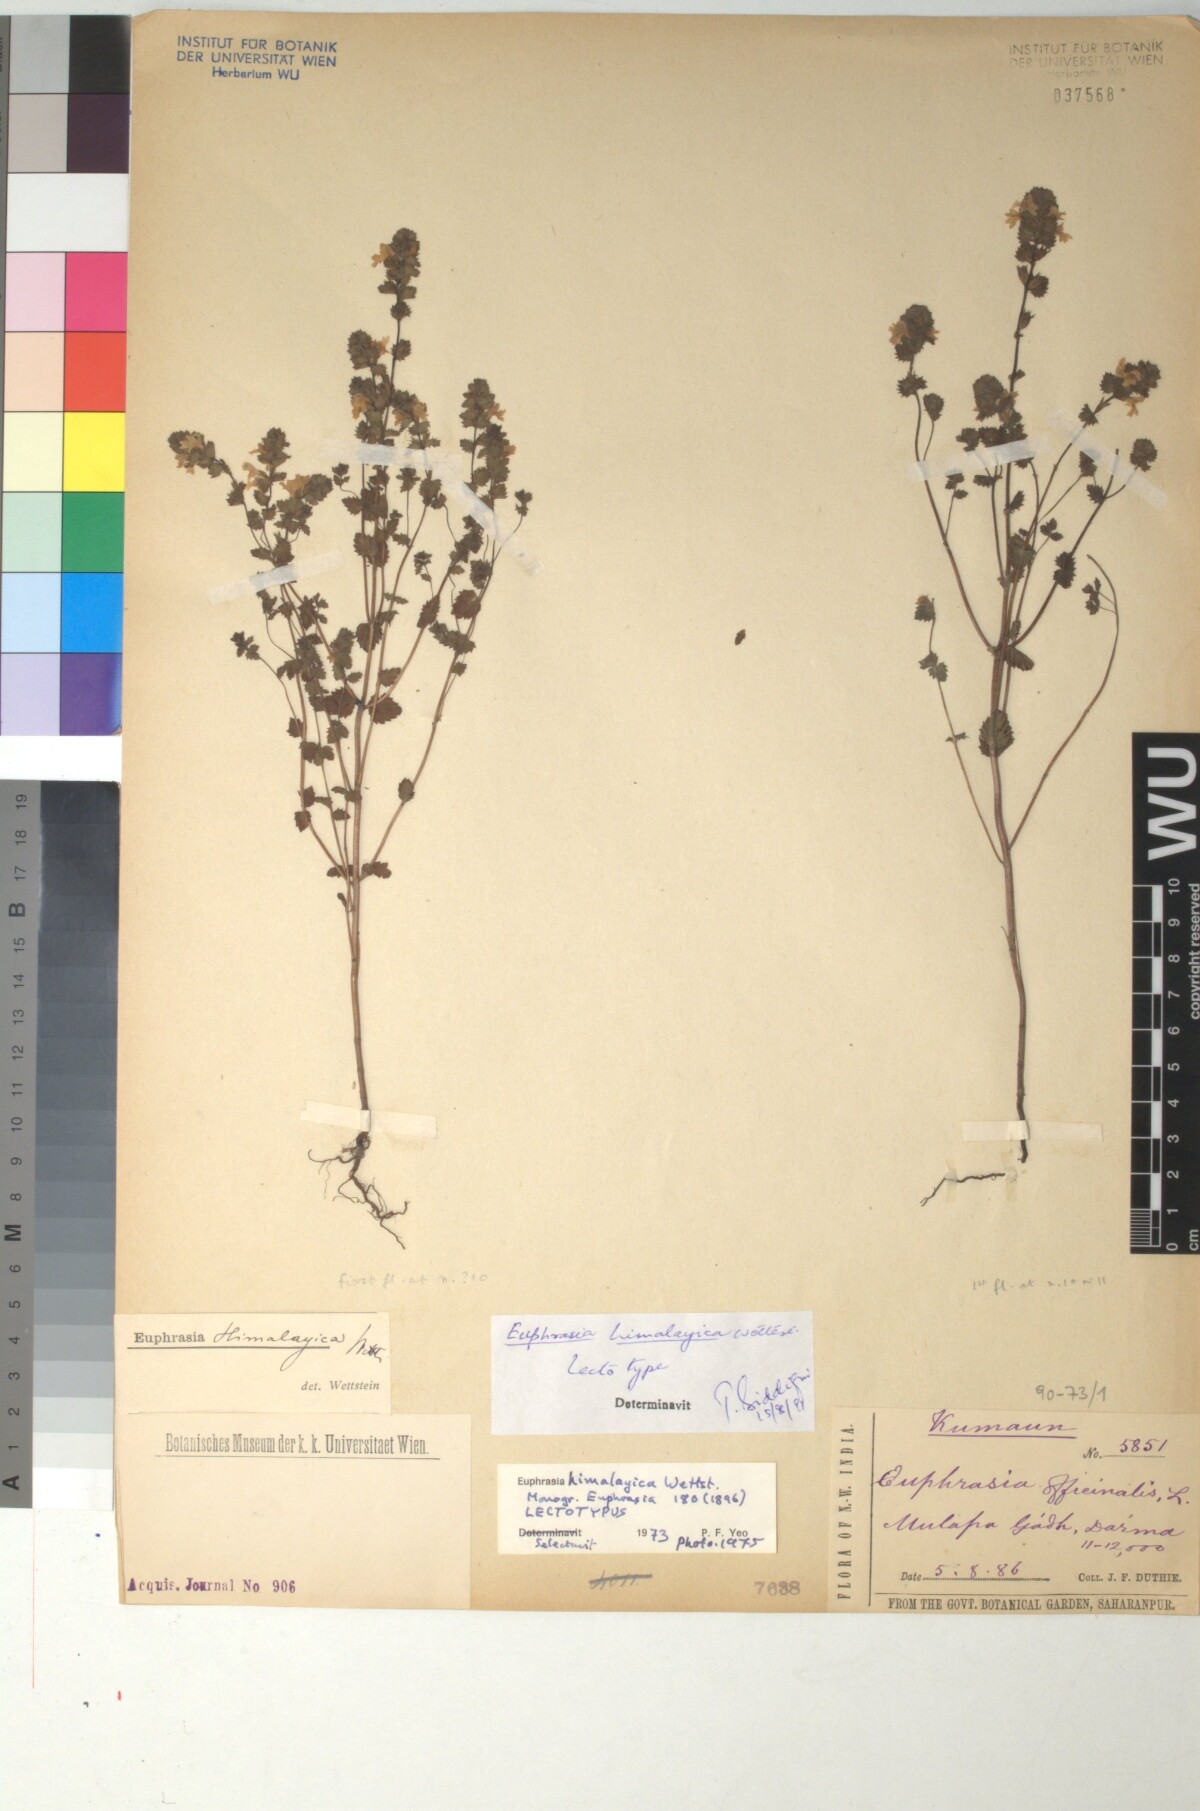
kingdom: Plantae
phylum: Tracheophyta
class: Magnoliopsida
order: Lamiales
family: Orobanchaceae
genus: Euphrasia
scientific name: Euphrasia himalayica
